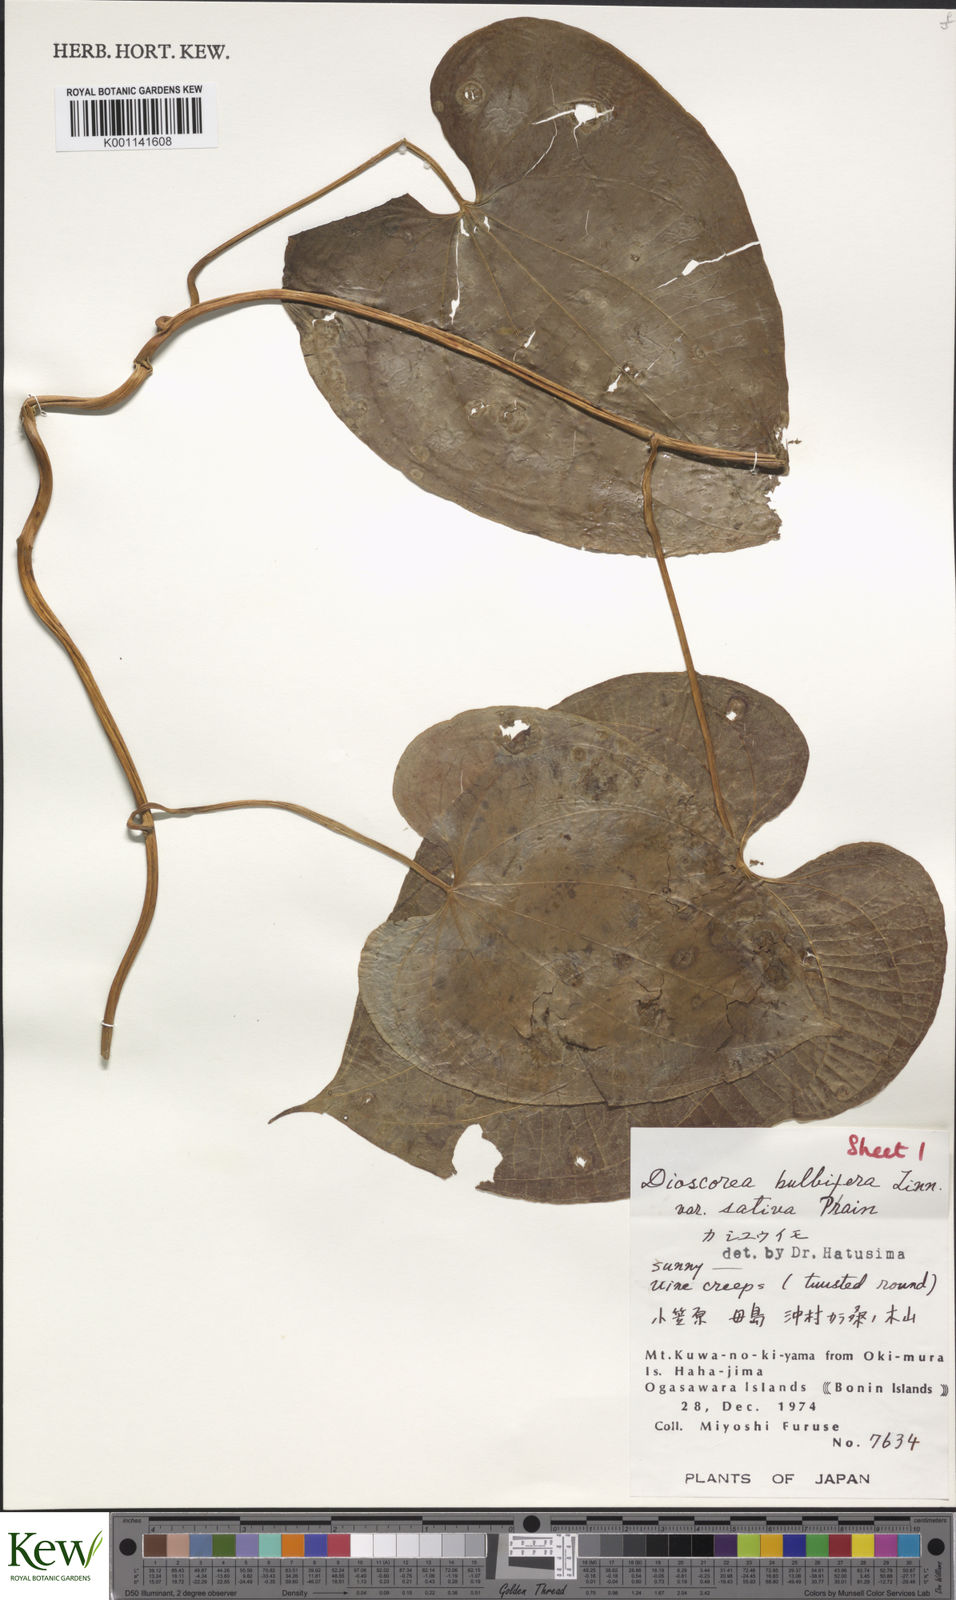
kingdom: Plantae
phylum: Tracheophyta
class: Liliopsida
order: Dioscoreales
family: Dioscoreaceae
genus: Dioscorea
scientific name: Dioscorea bulbifera
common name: Air yam
